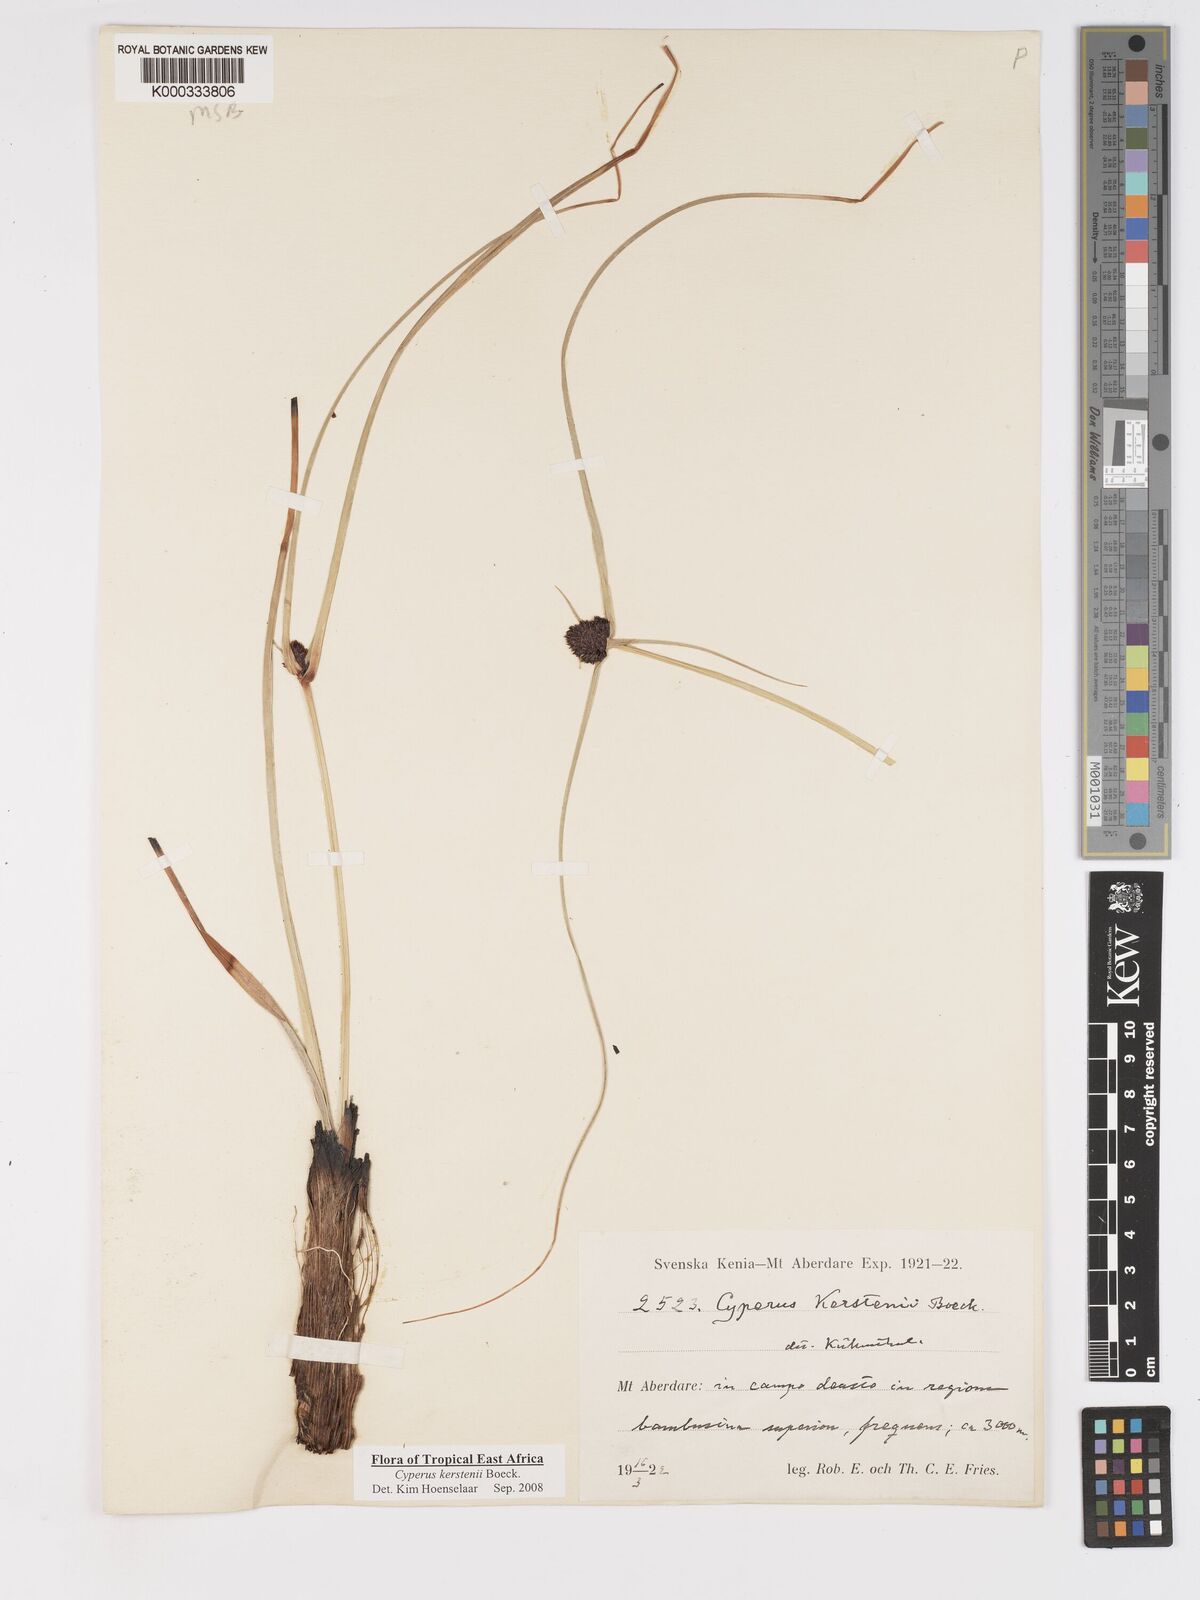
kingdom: Plantae
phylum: Tracheophyta
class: Liliopsida
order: Poales
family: Cyperaceae
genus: Cyperus
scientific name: Cyperus kerstenii
